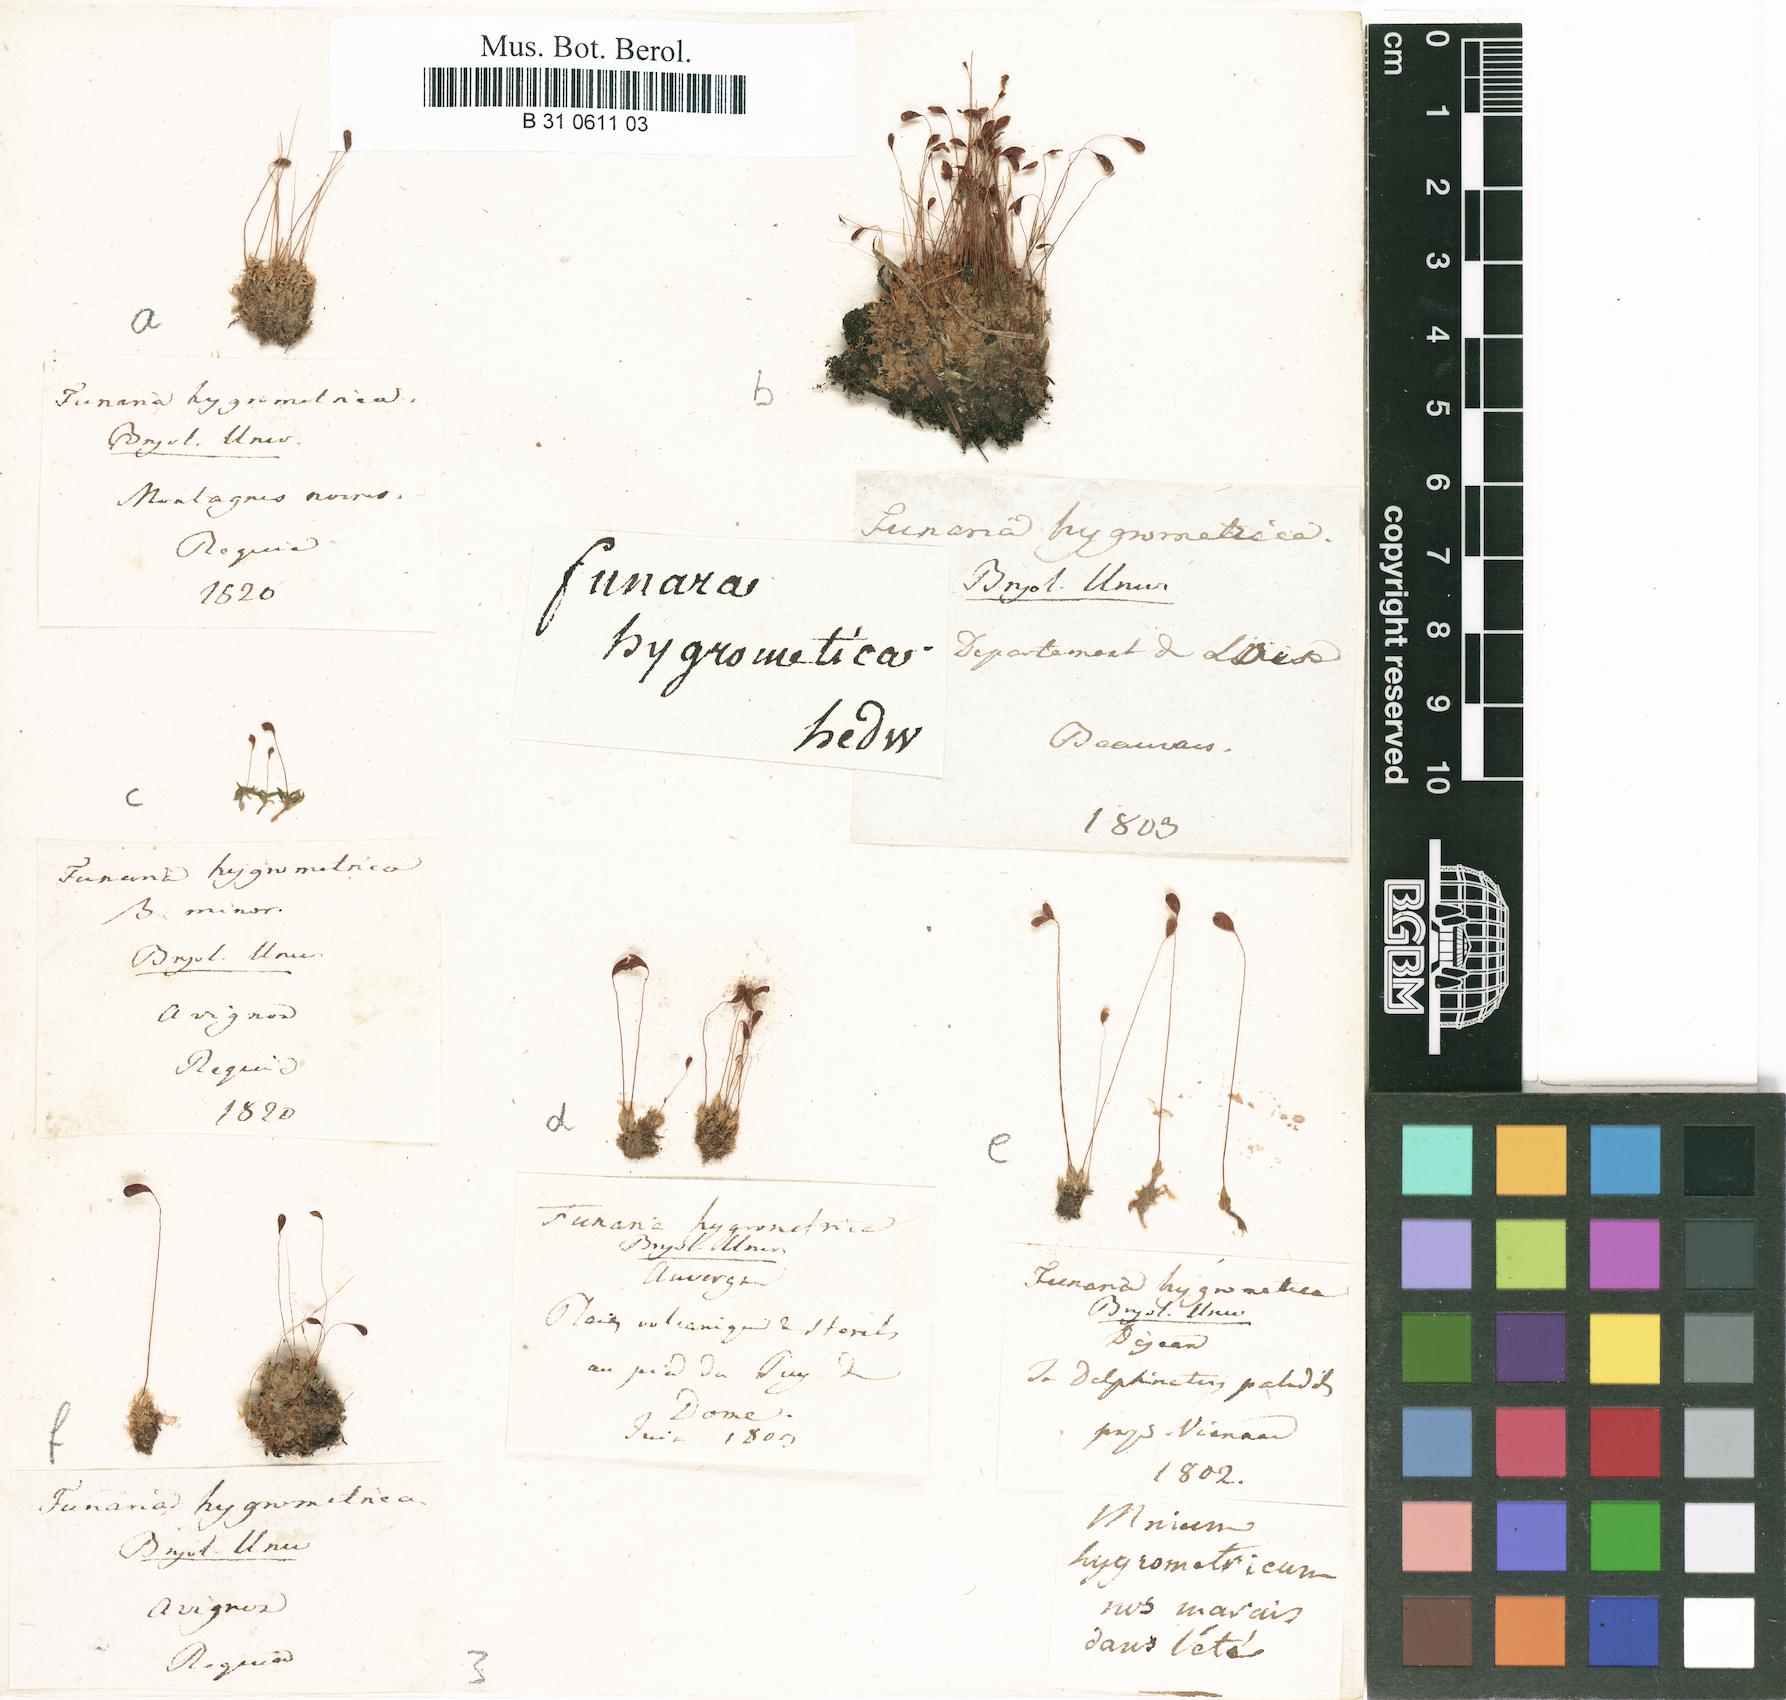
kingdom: Plantae
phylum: Bryophyta
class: Bryopsida
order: Funariales
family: Funariaceae
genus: Funaria
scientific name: Funaria hygrometrica
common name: Common cord moss
